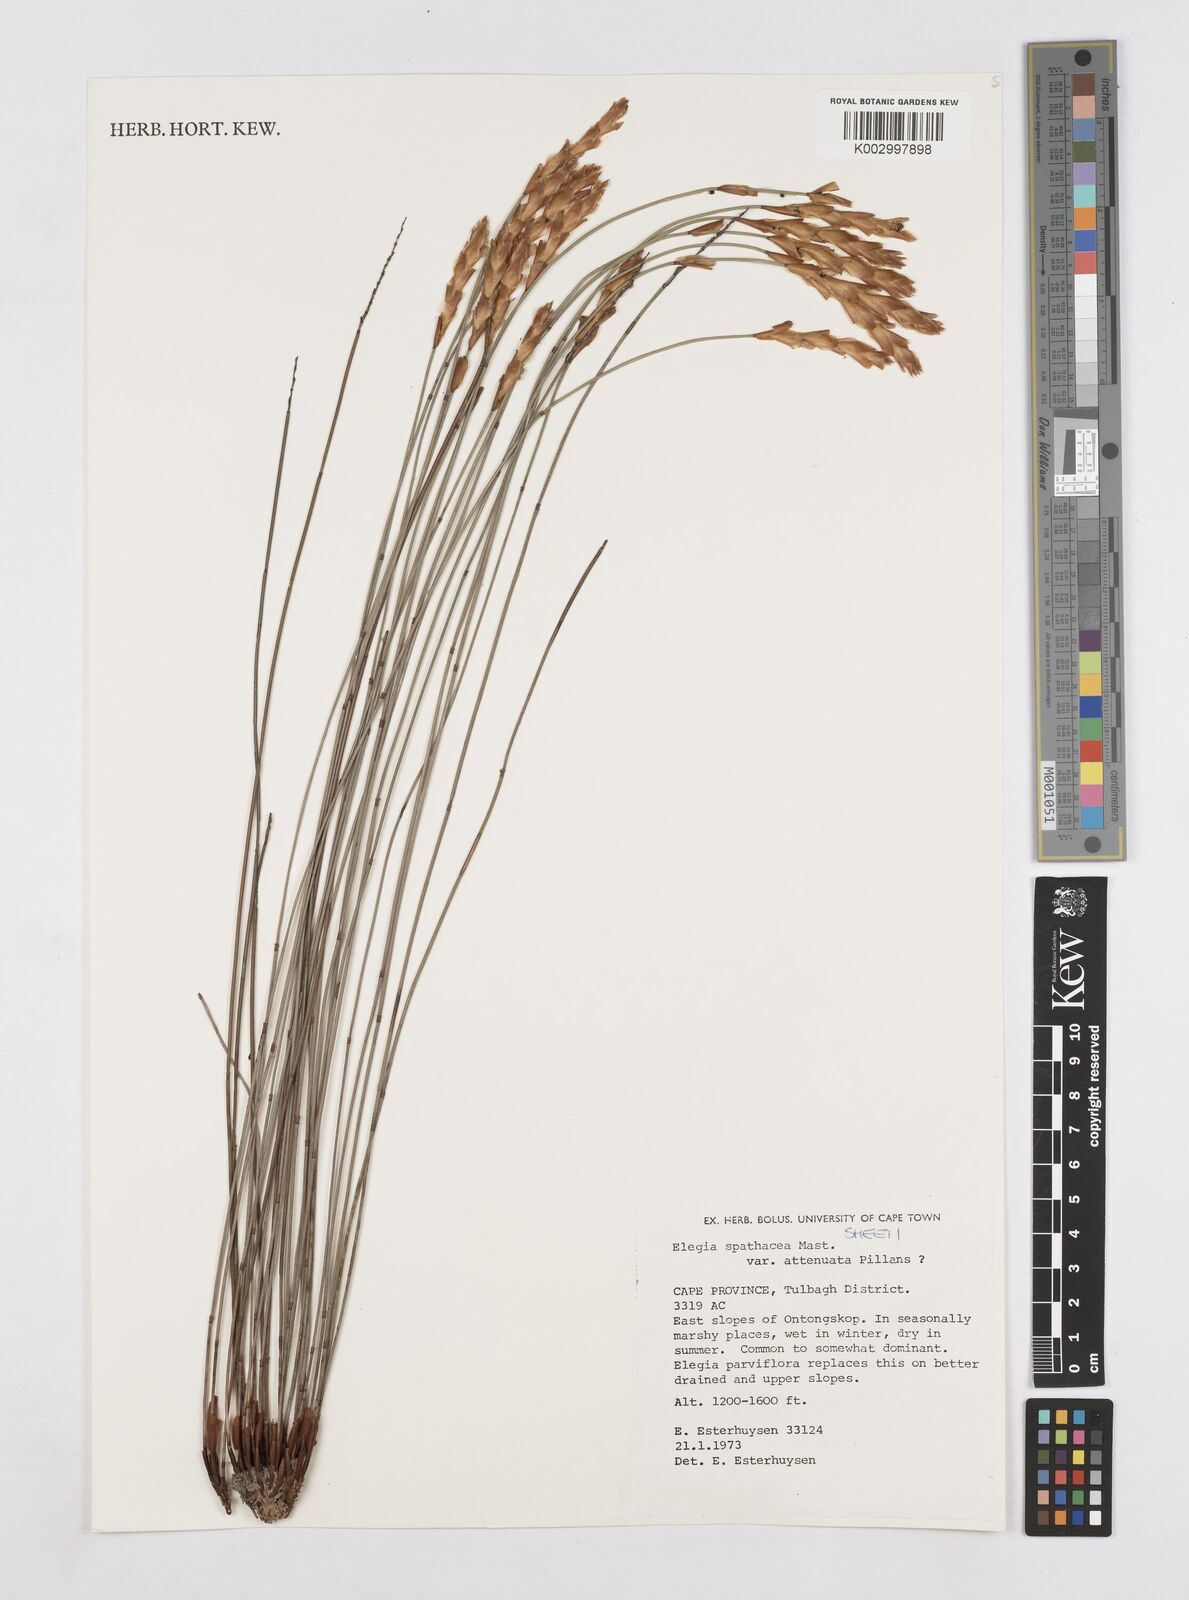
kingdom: Plantae
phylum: Tracheophyta
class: Liliopsida
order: Poales
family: Restionaceae
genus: Elegia
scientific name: Elegia rigida
